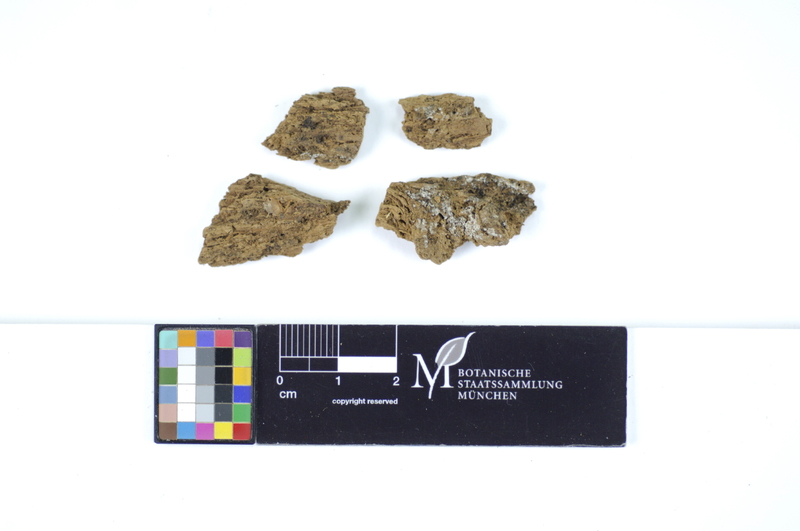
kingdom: Plantae
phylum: Tracheophyta
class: Pinopsida
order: Pinales
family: Pinaceae
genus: Pinus
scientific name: Pinus
